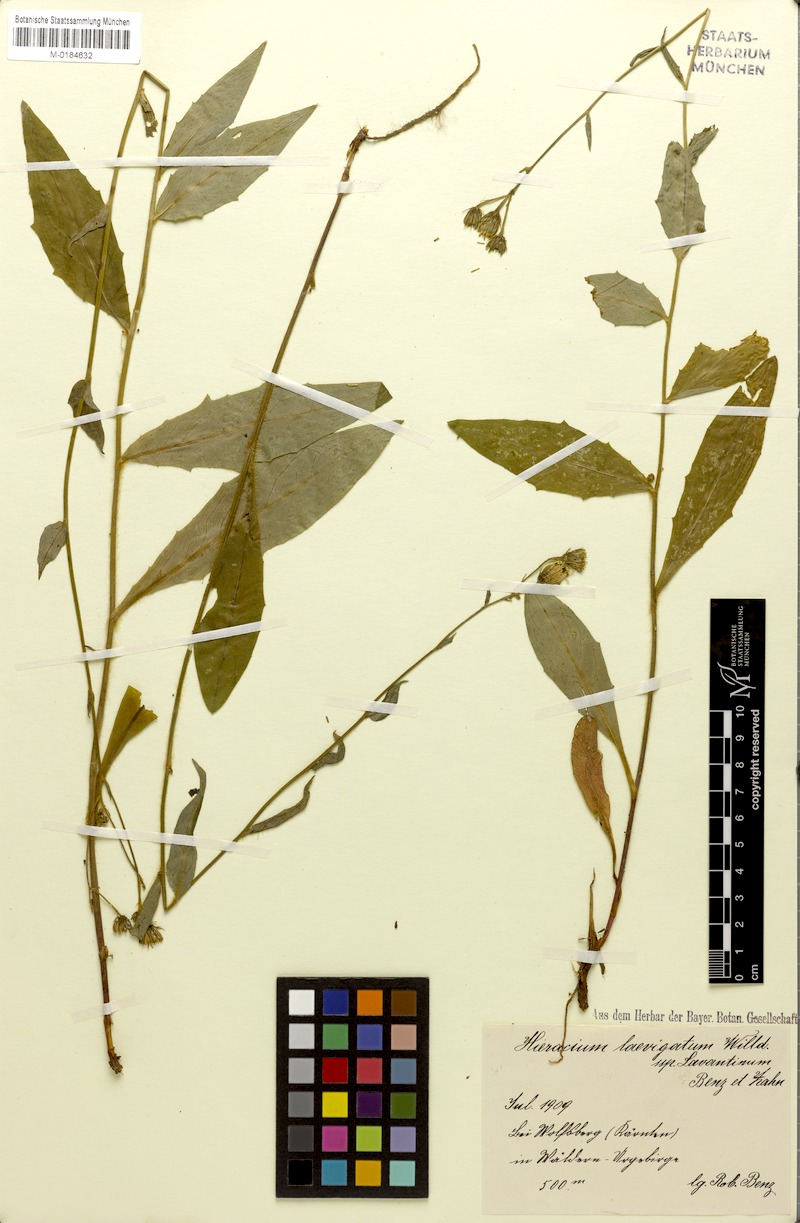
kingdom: Plantae
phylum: Tracheophyta
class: Magnoliopsida
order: Asterales
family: Asteraceae
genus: Hieracium
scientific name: Hieracium flagelliferum
